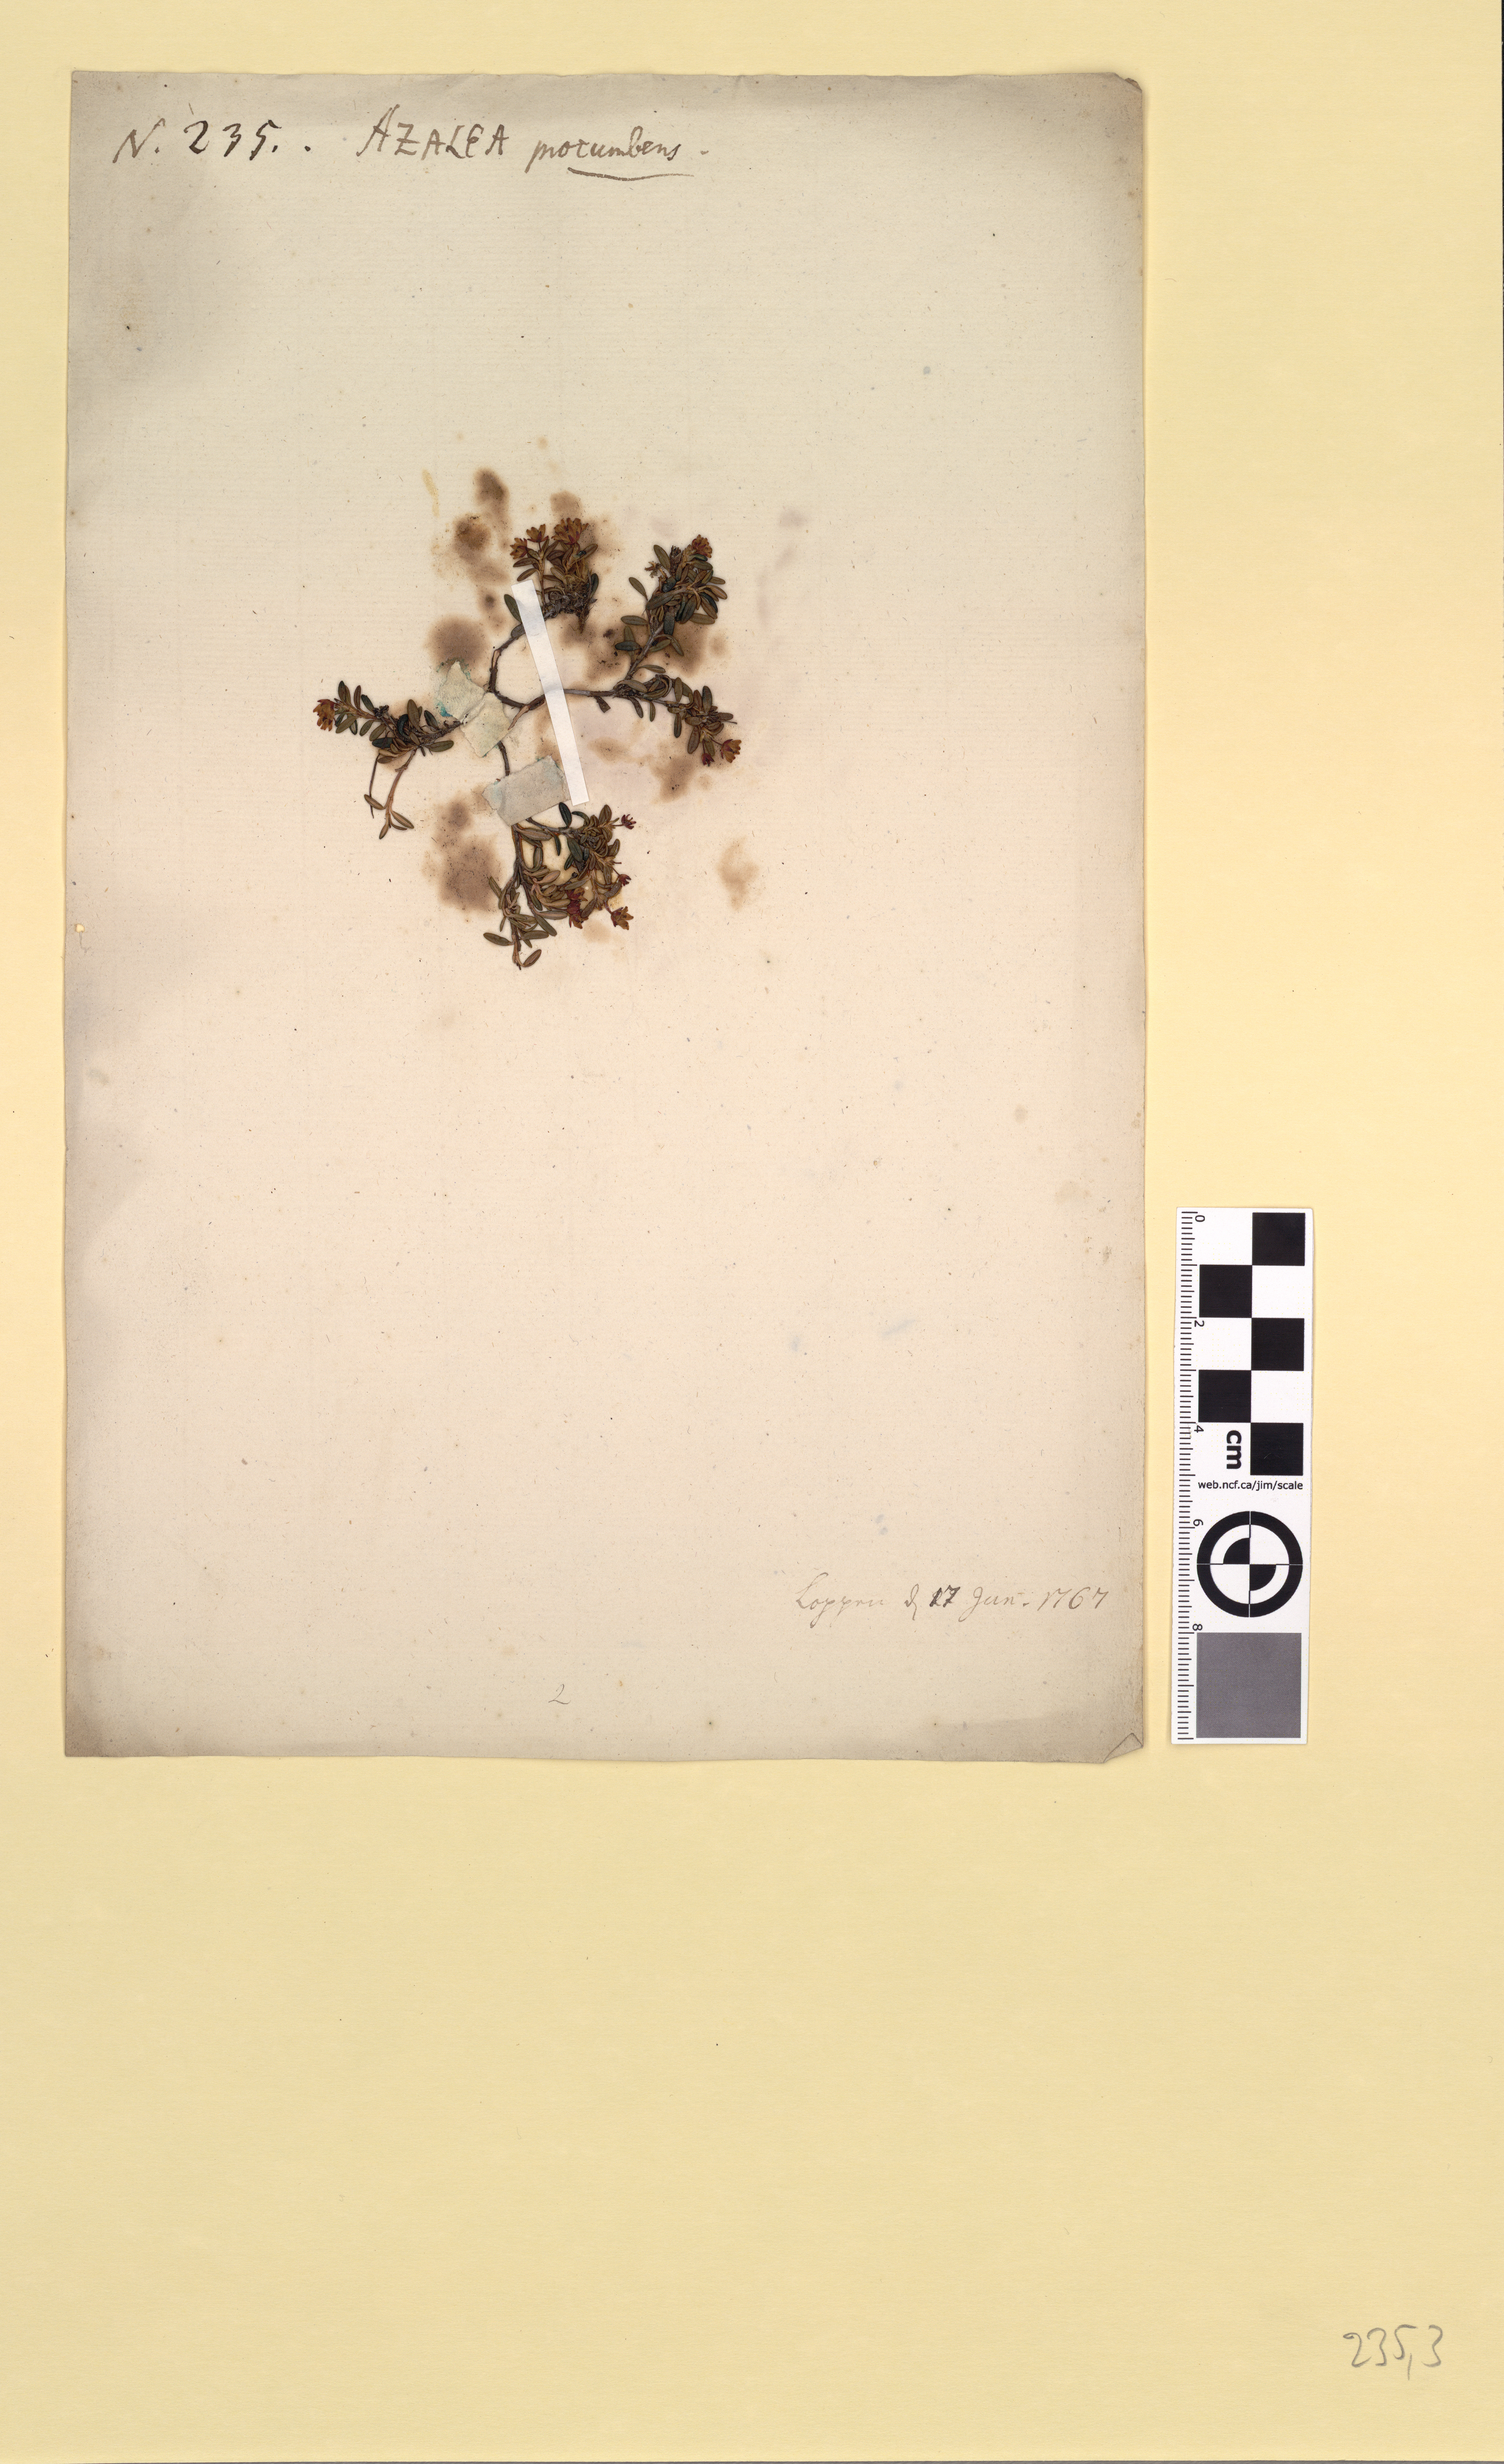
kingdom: Plantae
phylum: Tracheophyta
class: Magnoliopsida
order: Ericales
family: Ericaceae
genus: Kalmia
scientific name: Kalmia procumbens
